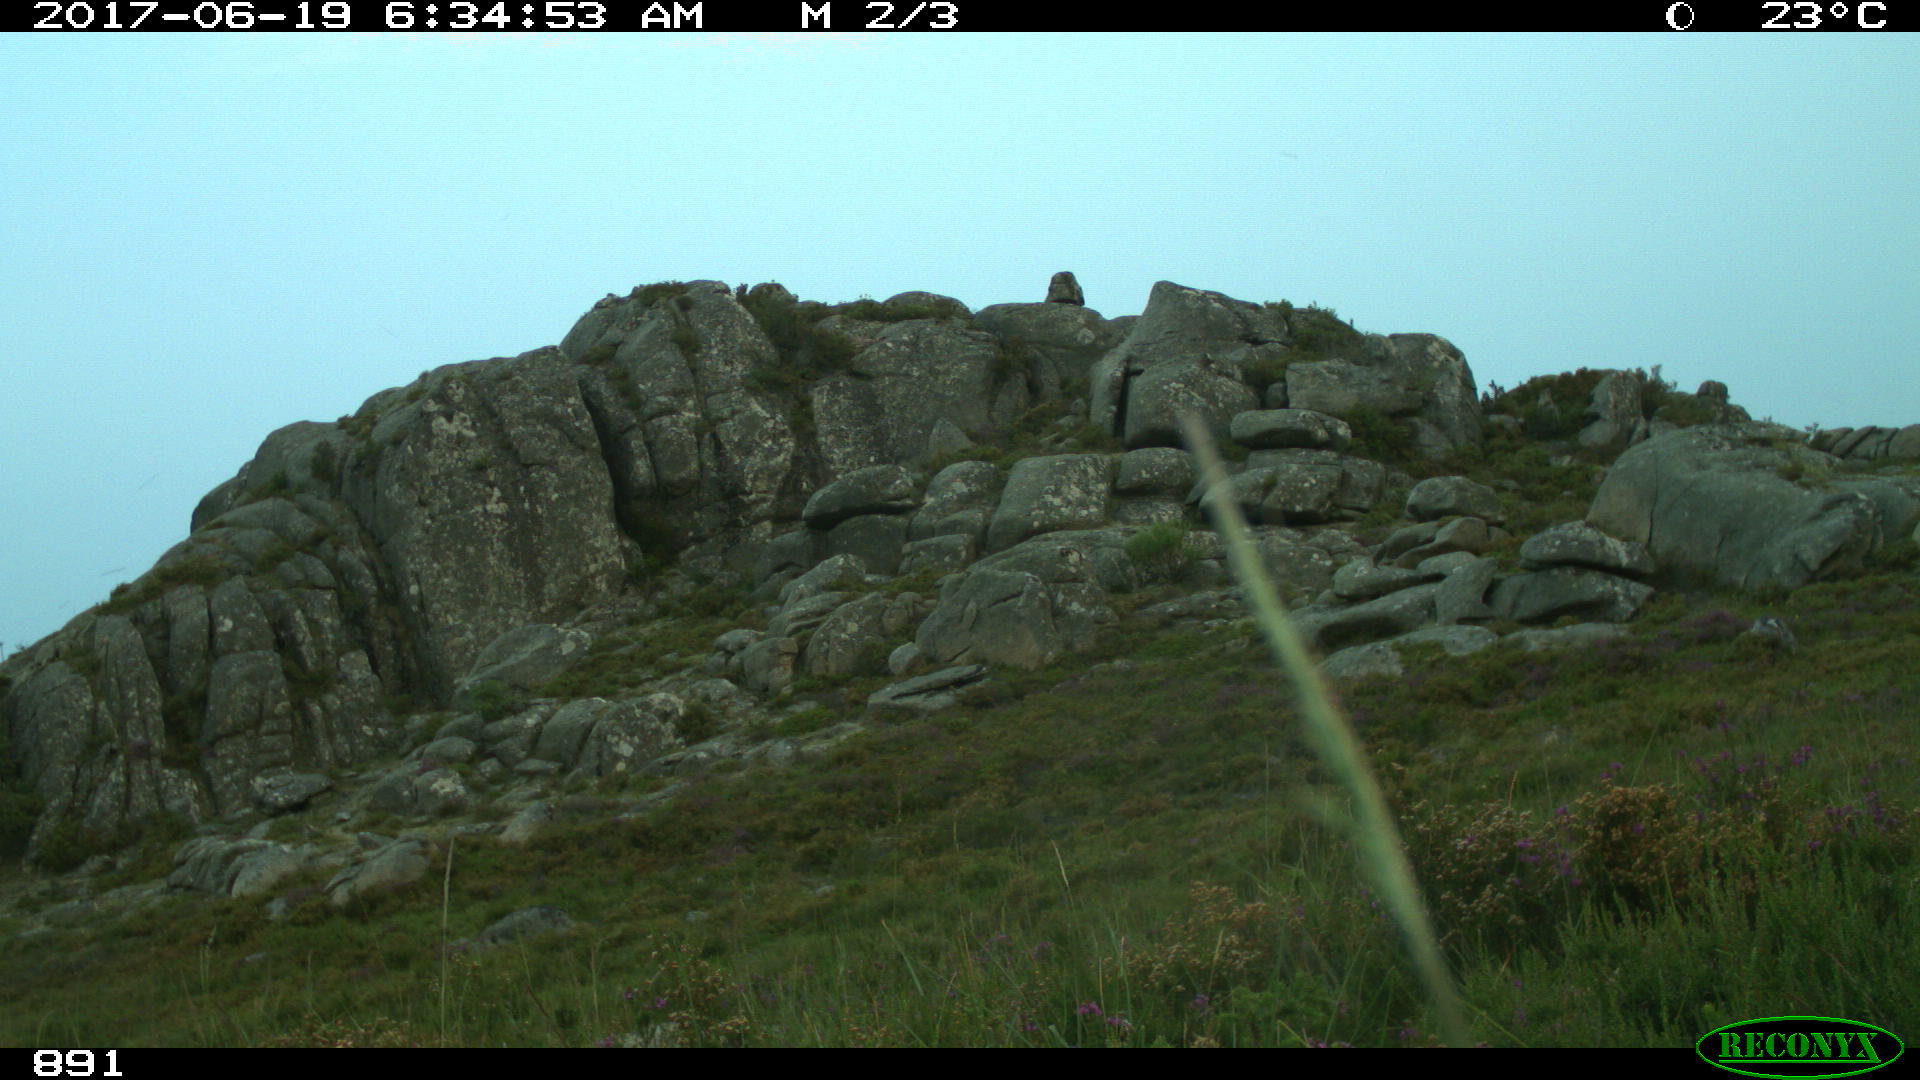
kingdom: Animalia
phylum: Chordata
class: Mammalia
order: Artiodactyla
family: Bovidae
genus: Bos
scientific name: Bos taurus
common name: Domesticated cattle
